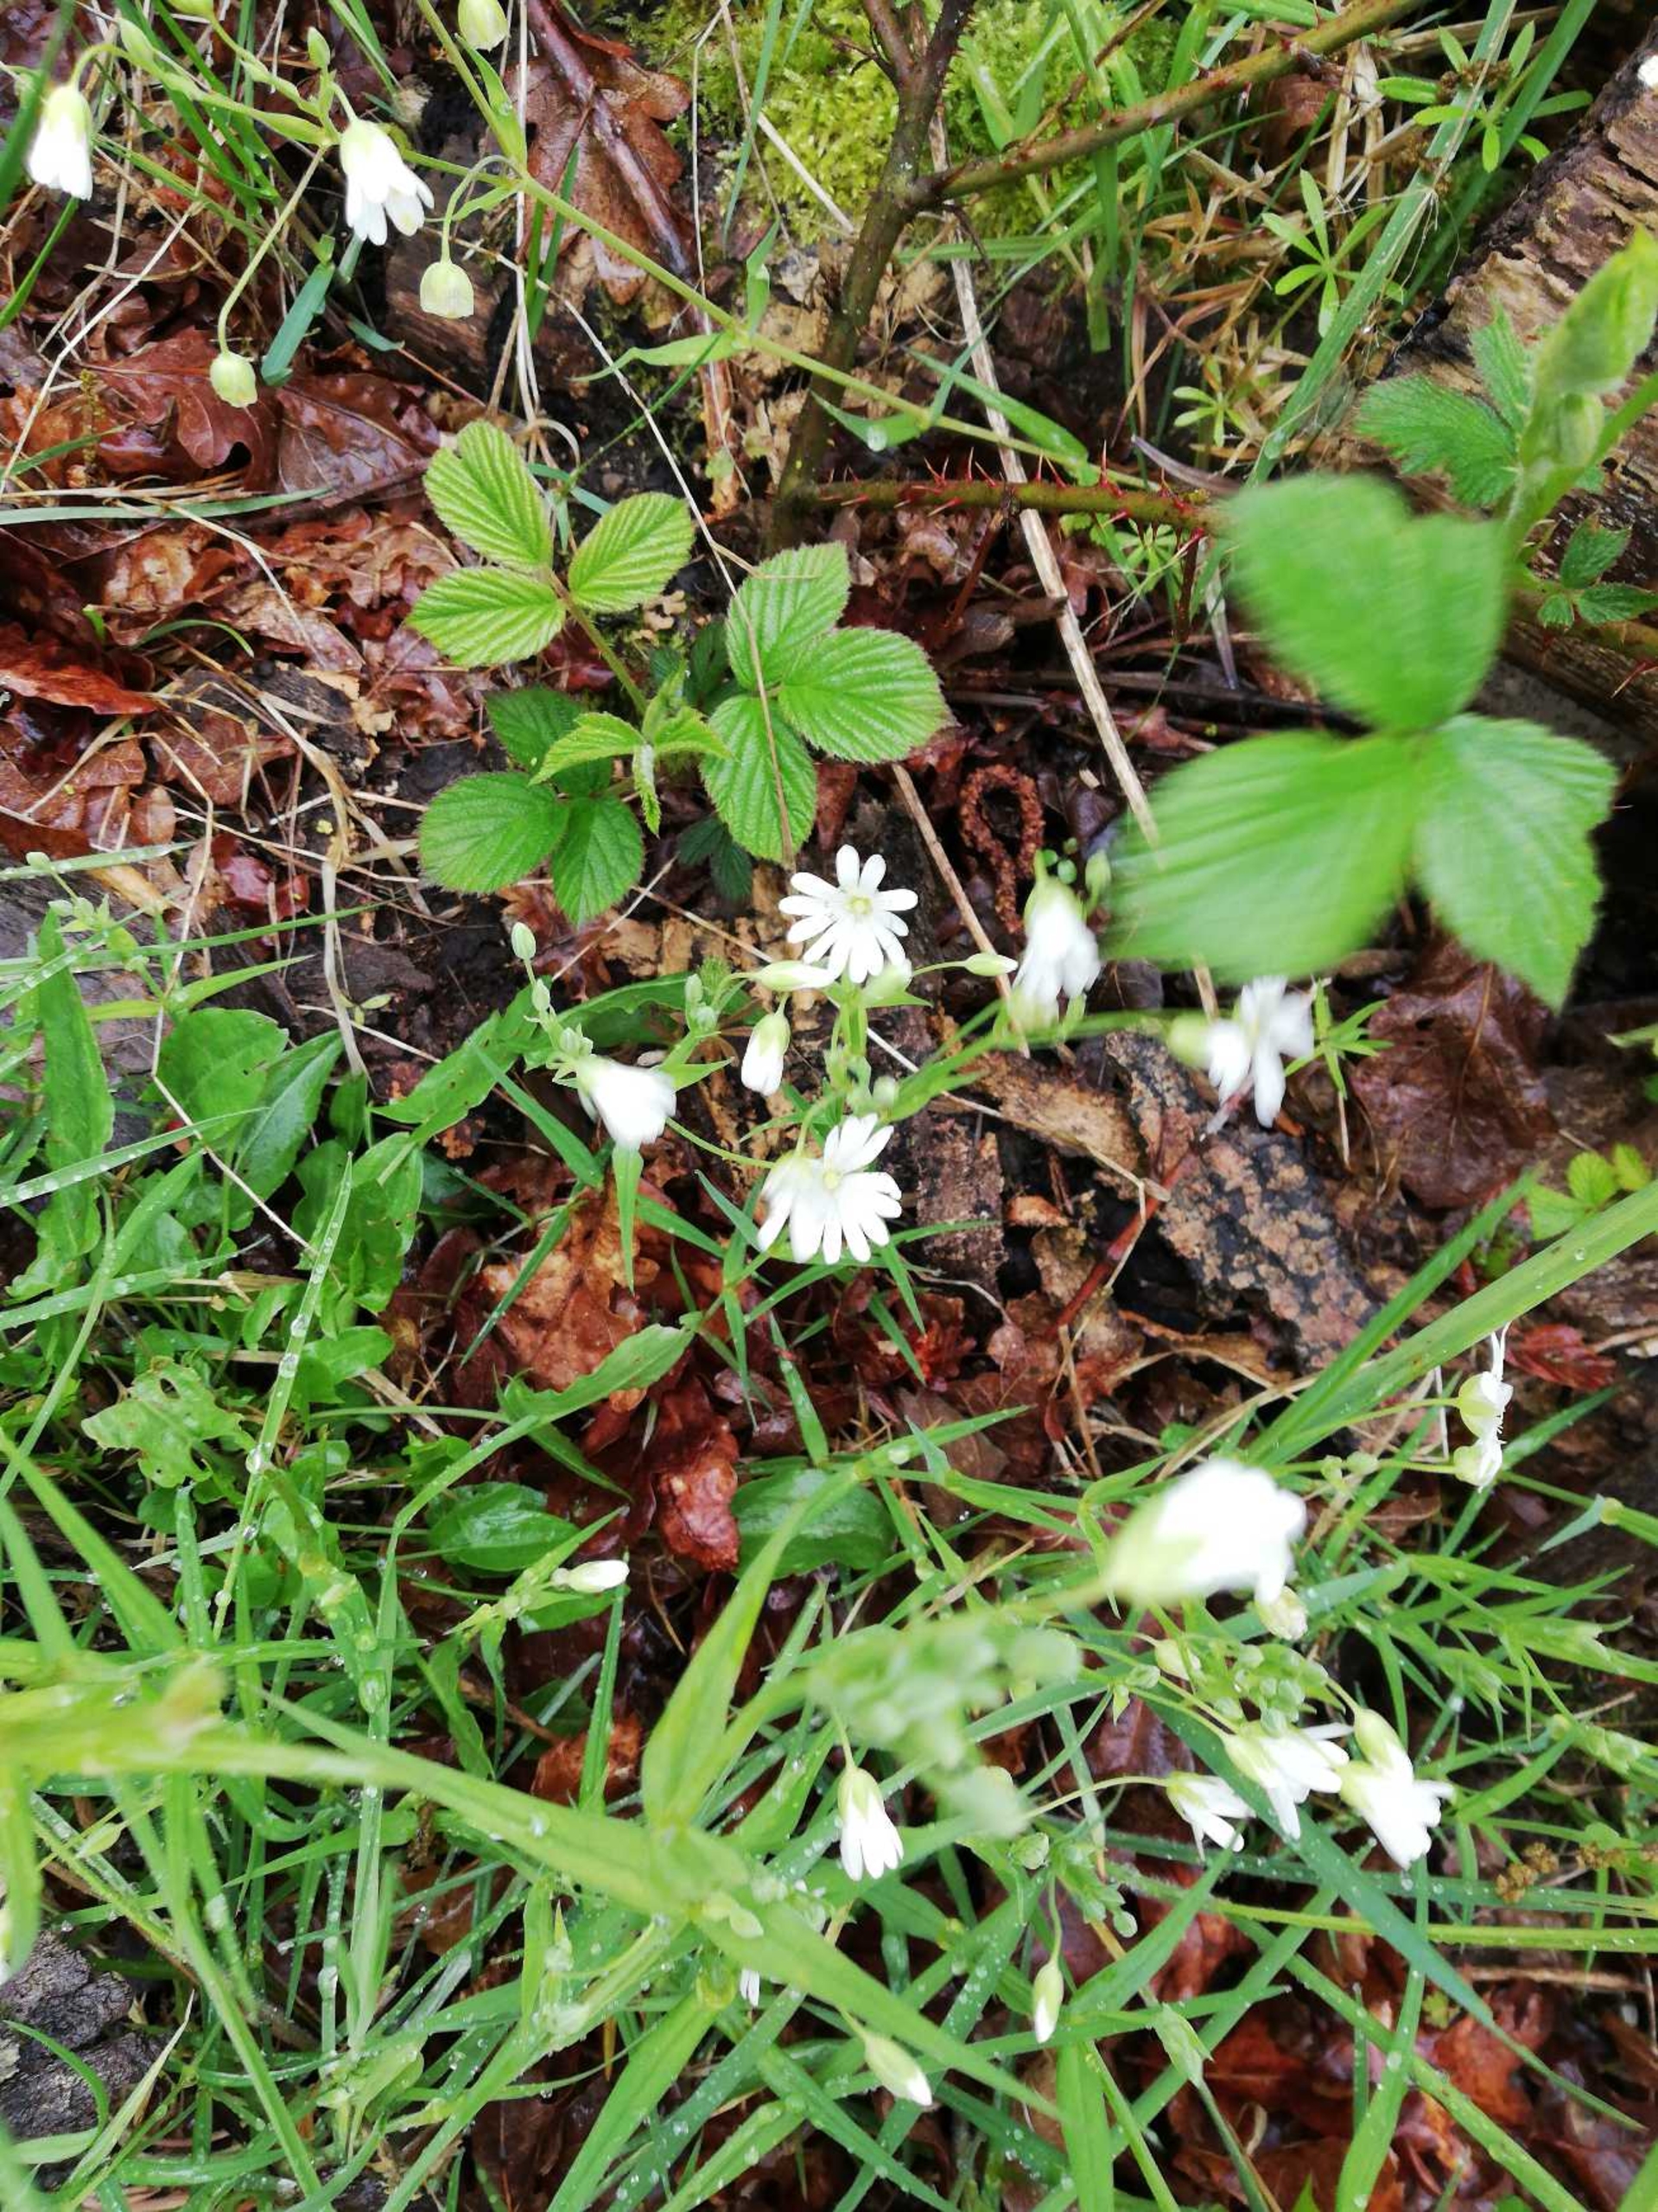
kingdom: Plantae
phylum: Tracheophyta
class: Magnoliopsida
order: Caryophyllales
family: Caryophyllaceae
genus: Rabelera
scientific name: Rabelera holostea
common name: Stor fladstjerne
